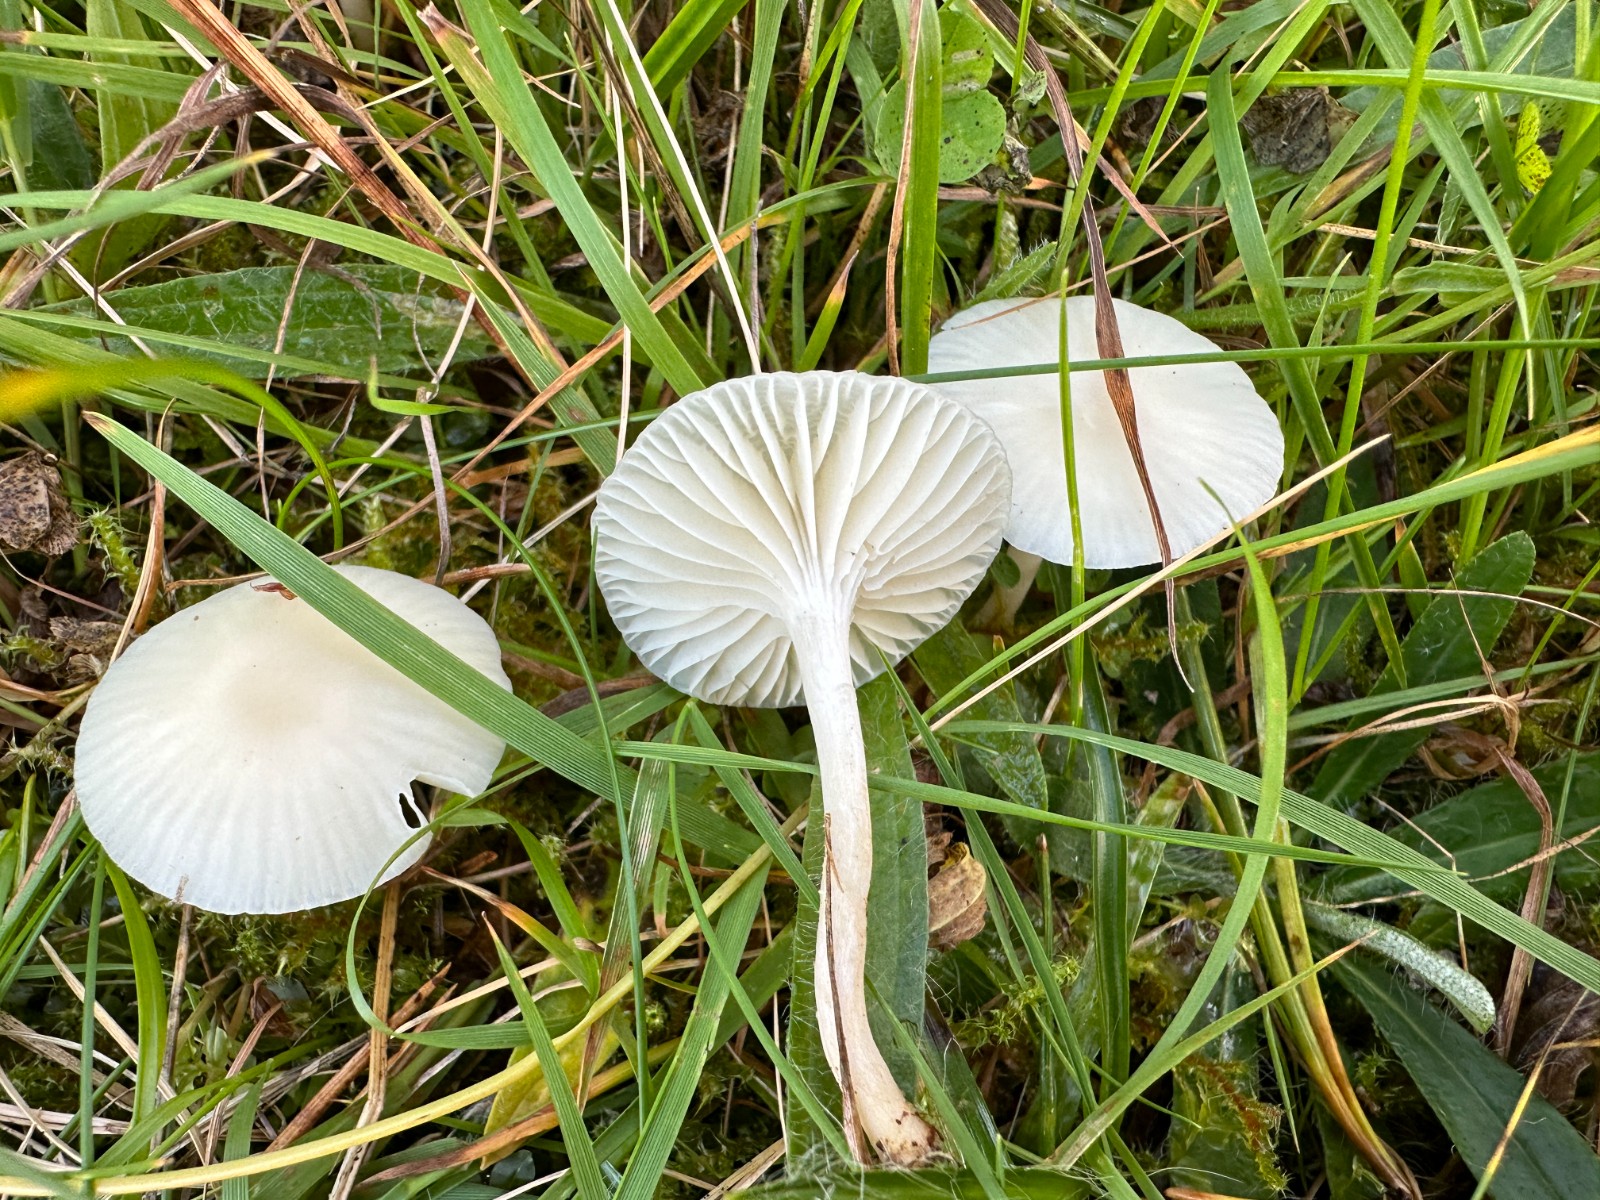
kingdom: Fungi
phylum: Basidiomycota
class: Agaricomycetes
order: Agaricales
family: Hygrophoraceae
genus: Cuphophyllus
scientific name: Cuphophyllus virgineus
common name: snehvid vokshat
